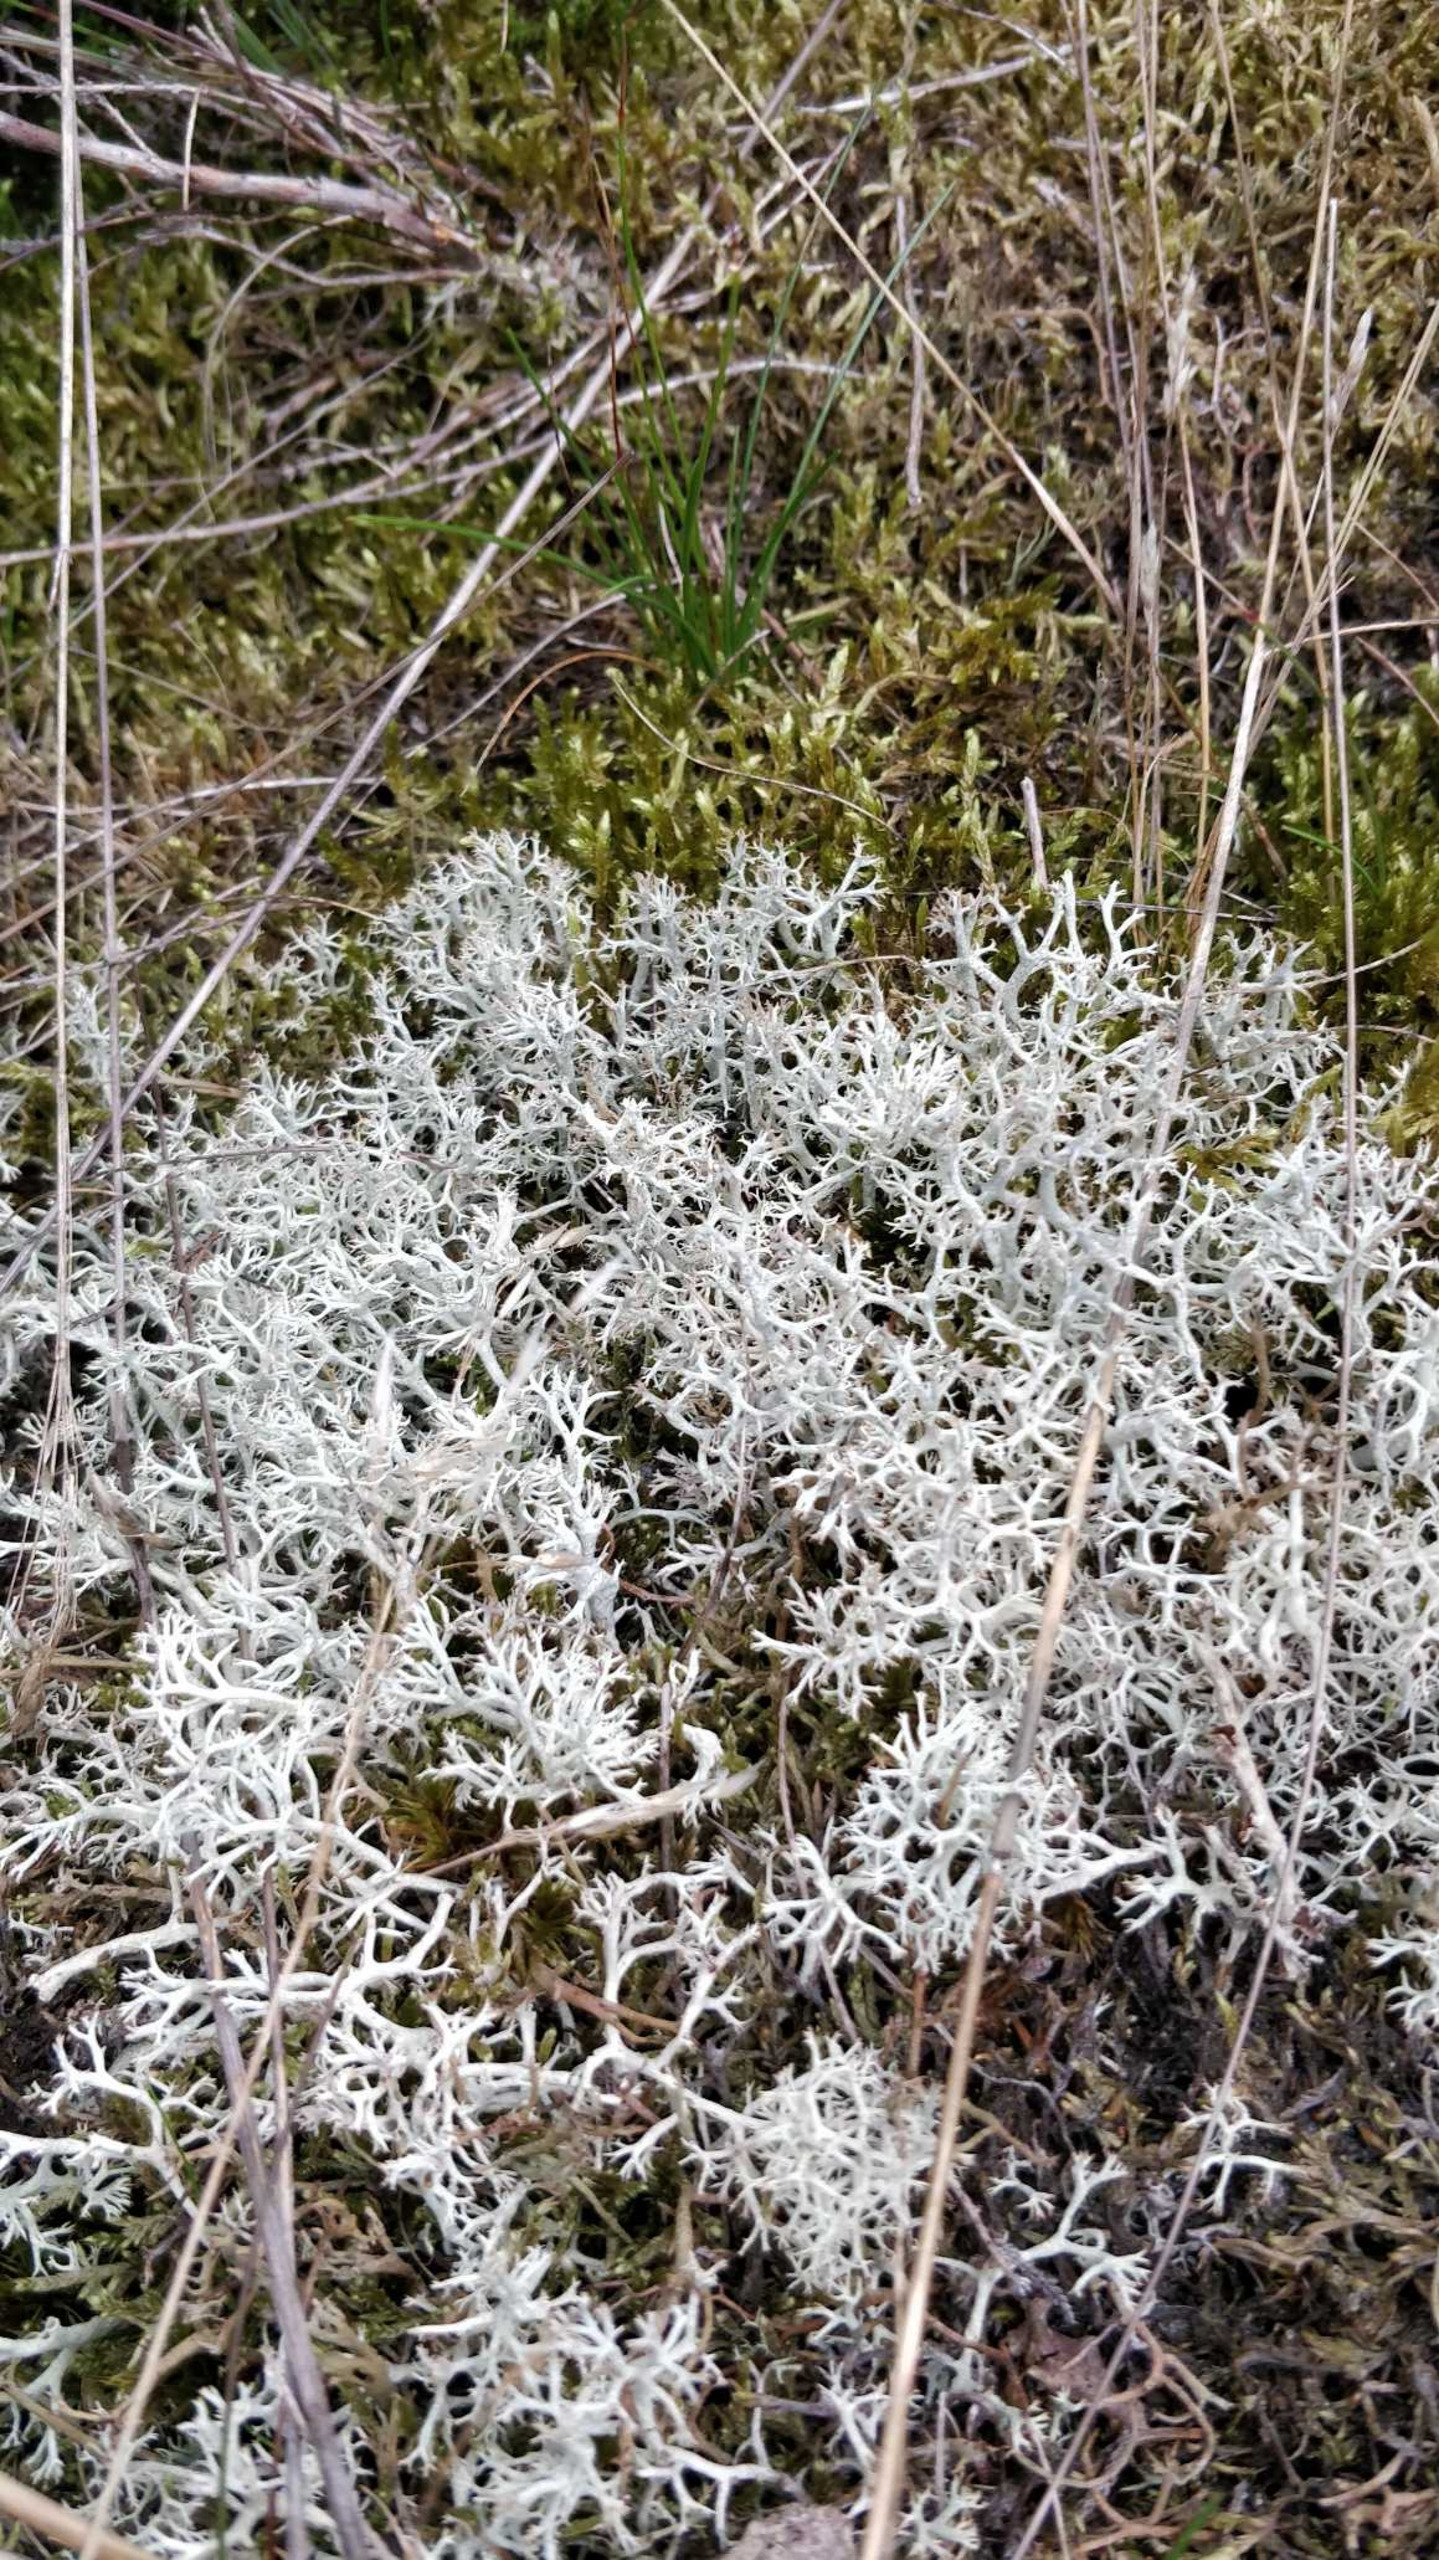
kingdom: Fungi
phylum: Ascomycota
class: Lecanoromycetes
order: Lecanorales
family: Cladoniaceae
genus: Cladonia
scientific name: Cladonia portentosa
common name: Hede-rensdyrlav
